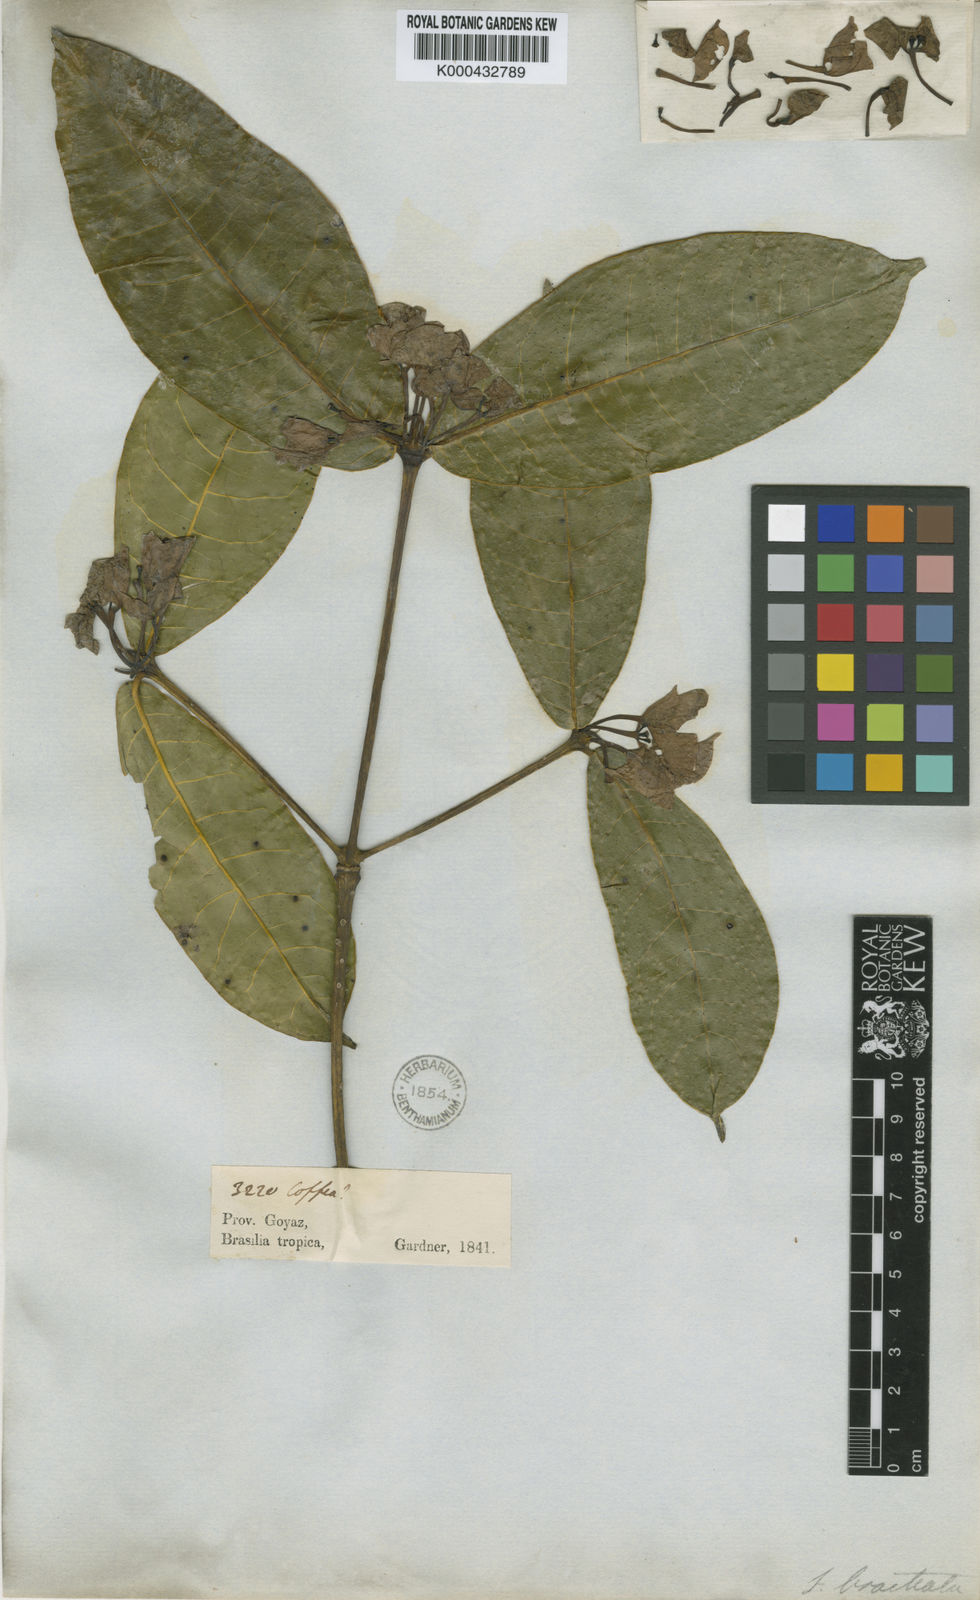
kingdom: Plantae
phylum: Tracheophyta
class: Magnoliopsida
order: Gentianales
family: Rubiaceae
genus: Faramea
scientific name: Faramea bracteata
